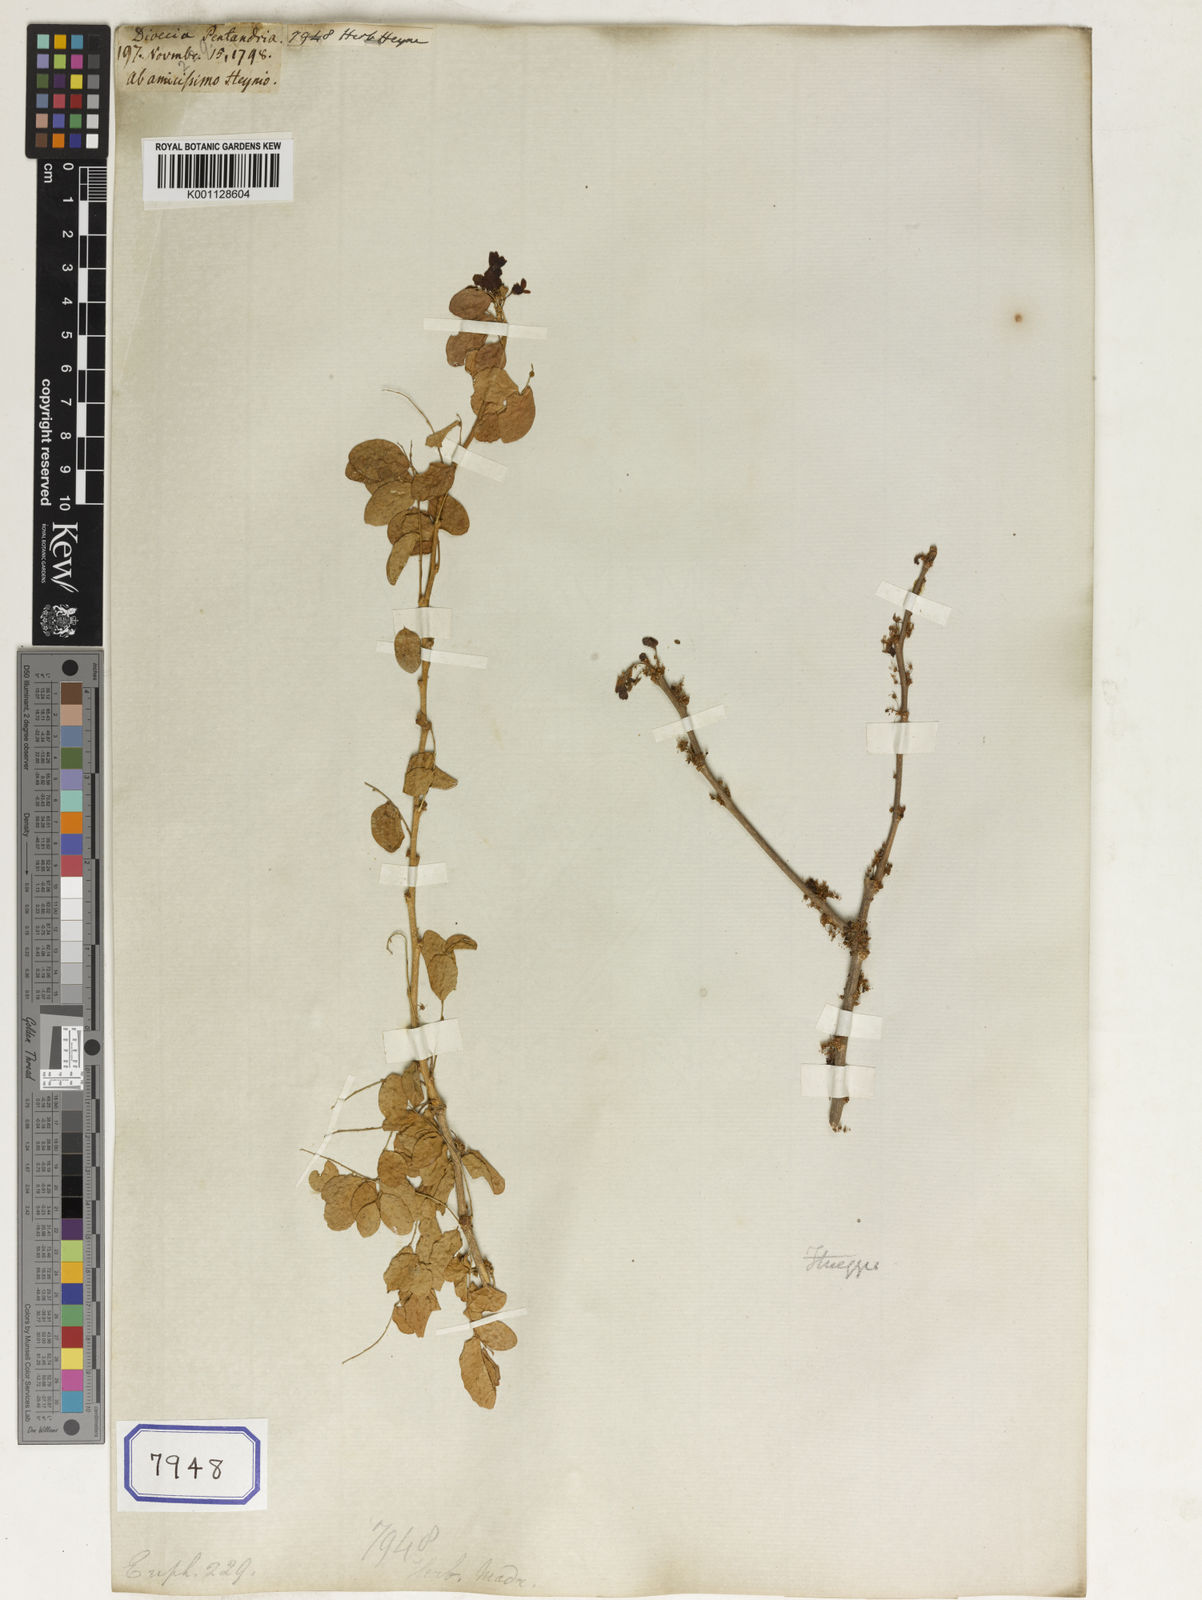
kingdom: Plantae
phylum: Tracheophyta
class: Magnoliopsida
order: Malpighiales
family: Euphorbiaceae
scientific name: Euphorbiaceae
